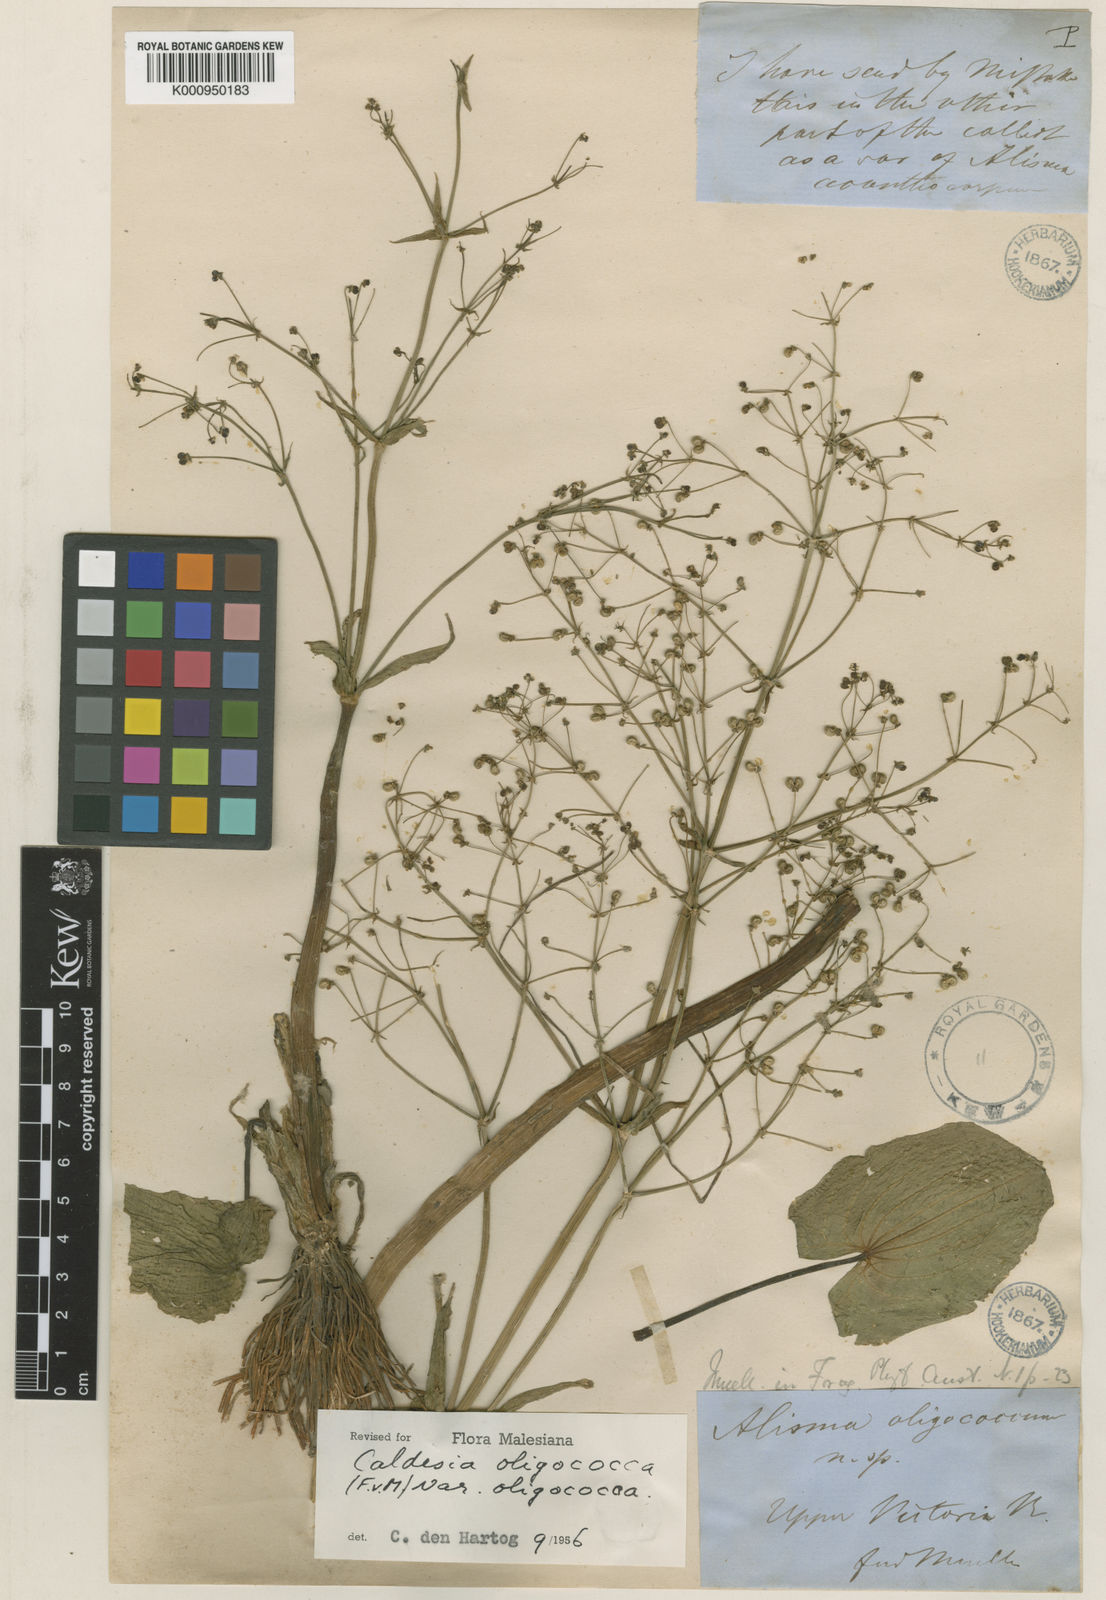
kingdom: Plantae
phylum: Tracheophyta
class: Liliopsida
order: Alismatales
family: Alismataceae
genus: Albidella
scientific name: Albidella oligococca
